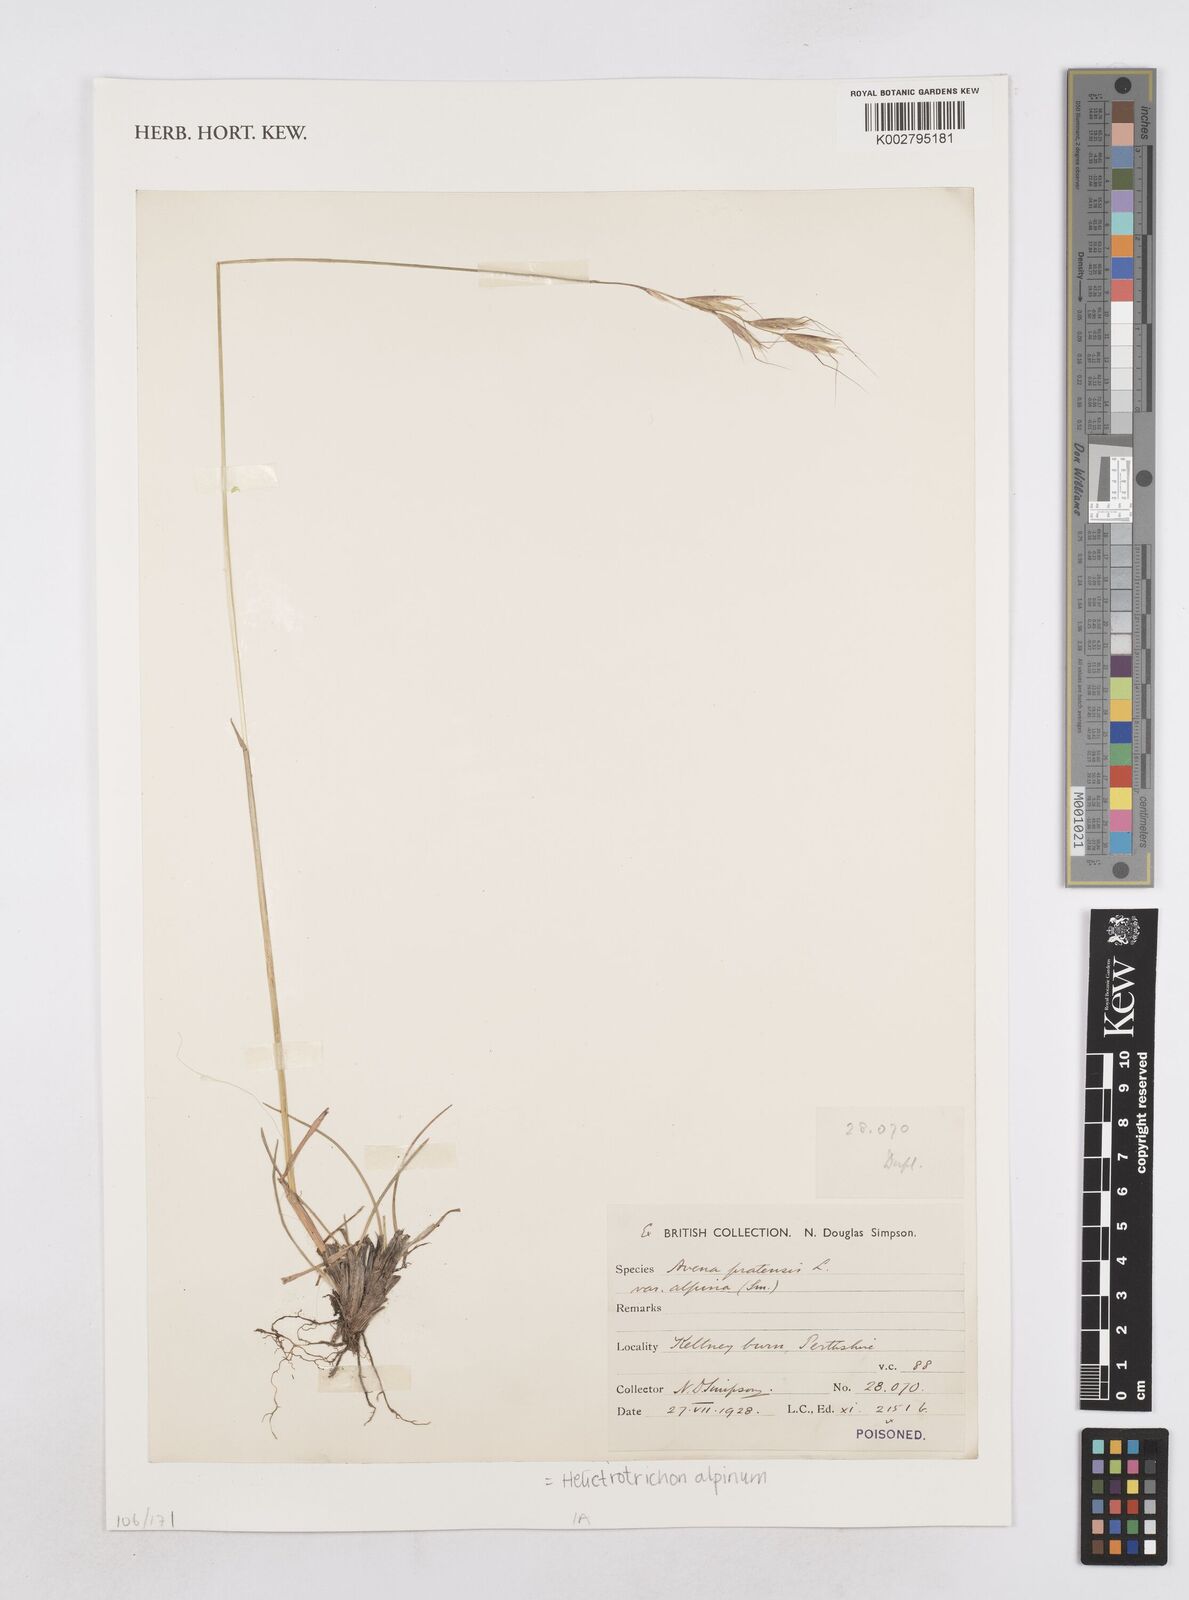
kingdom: Plantae
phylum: Tracheophyta
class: Liliopsida
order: Poales
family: Poaceae
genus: Helictochloa
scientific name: Helictochloa pratensis
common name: Meadow oat grass
